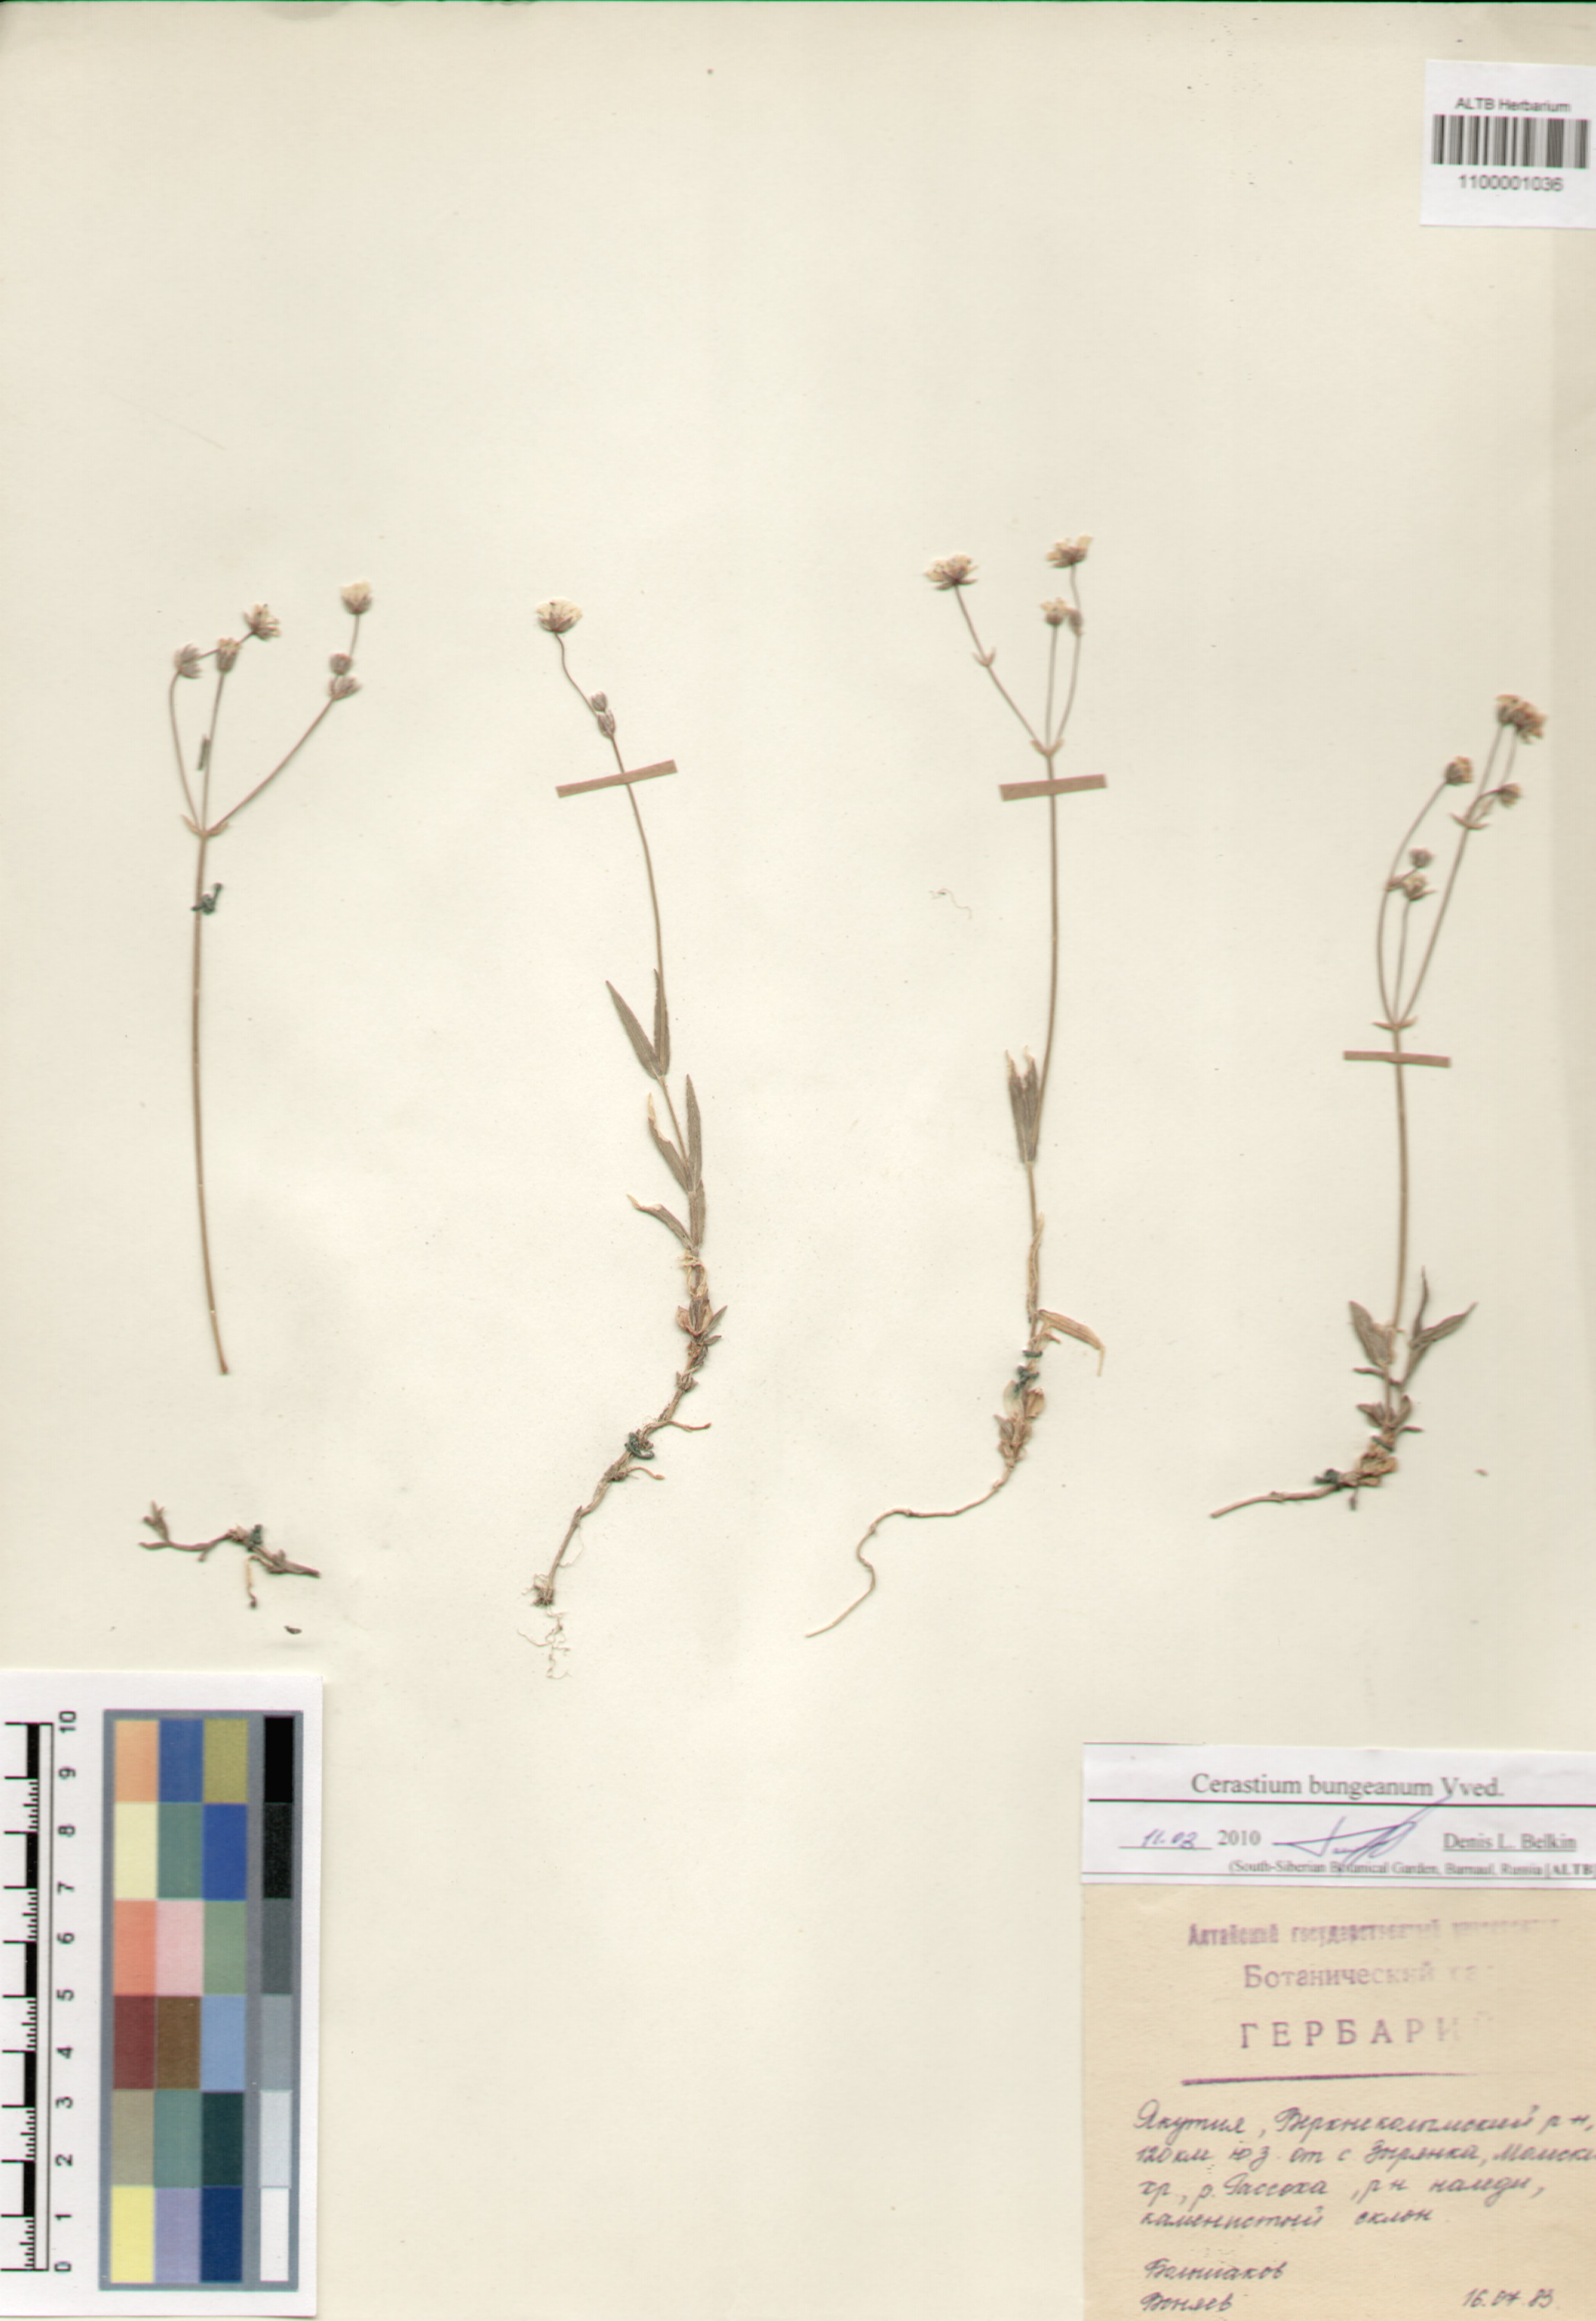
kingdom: Plantae
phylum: Tracheophyta
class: Magnoliopsida
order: Caryophyllales
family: Caryophyllaceae
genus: Dichodon
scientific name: Dichodon maximum
